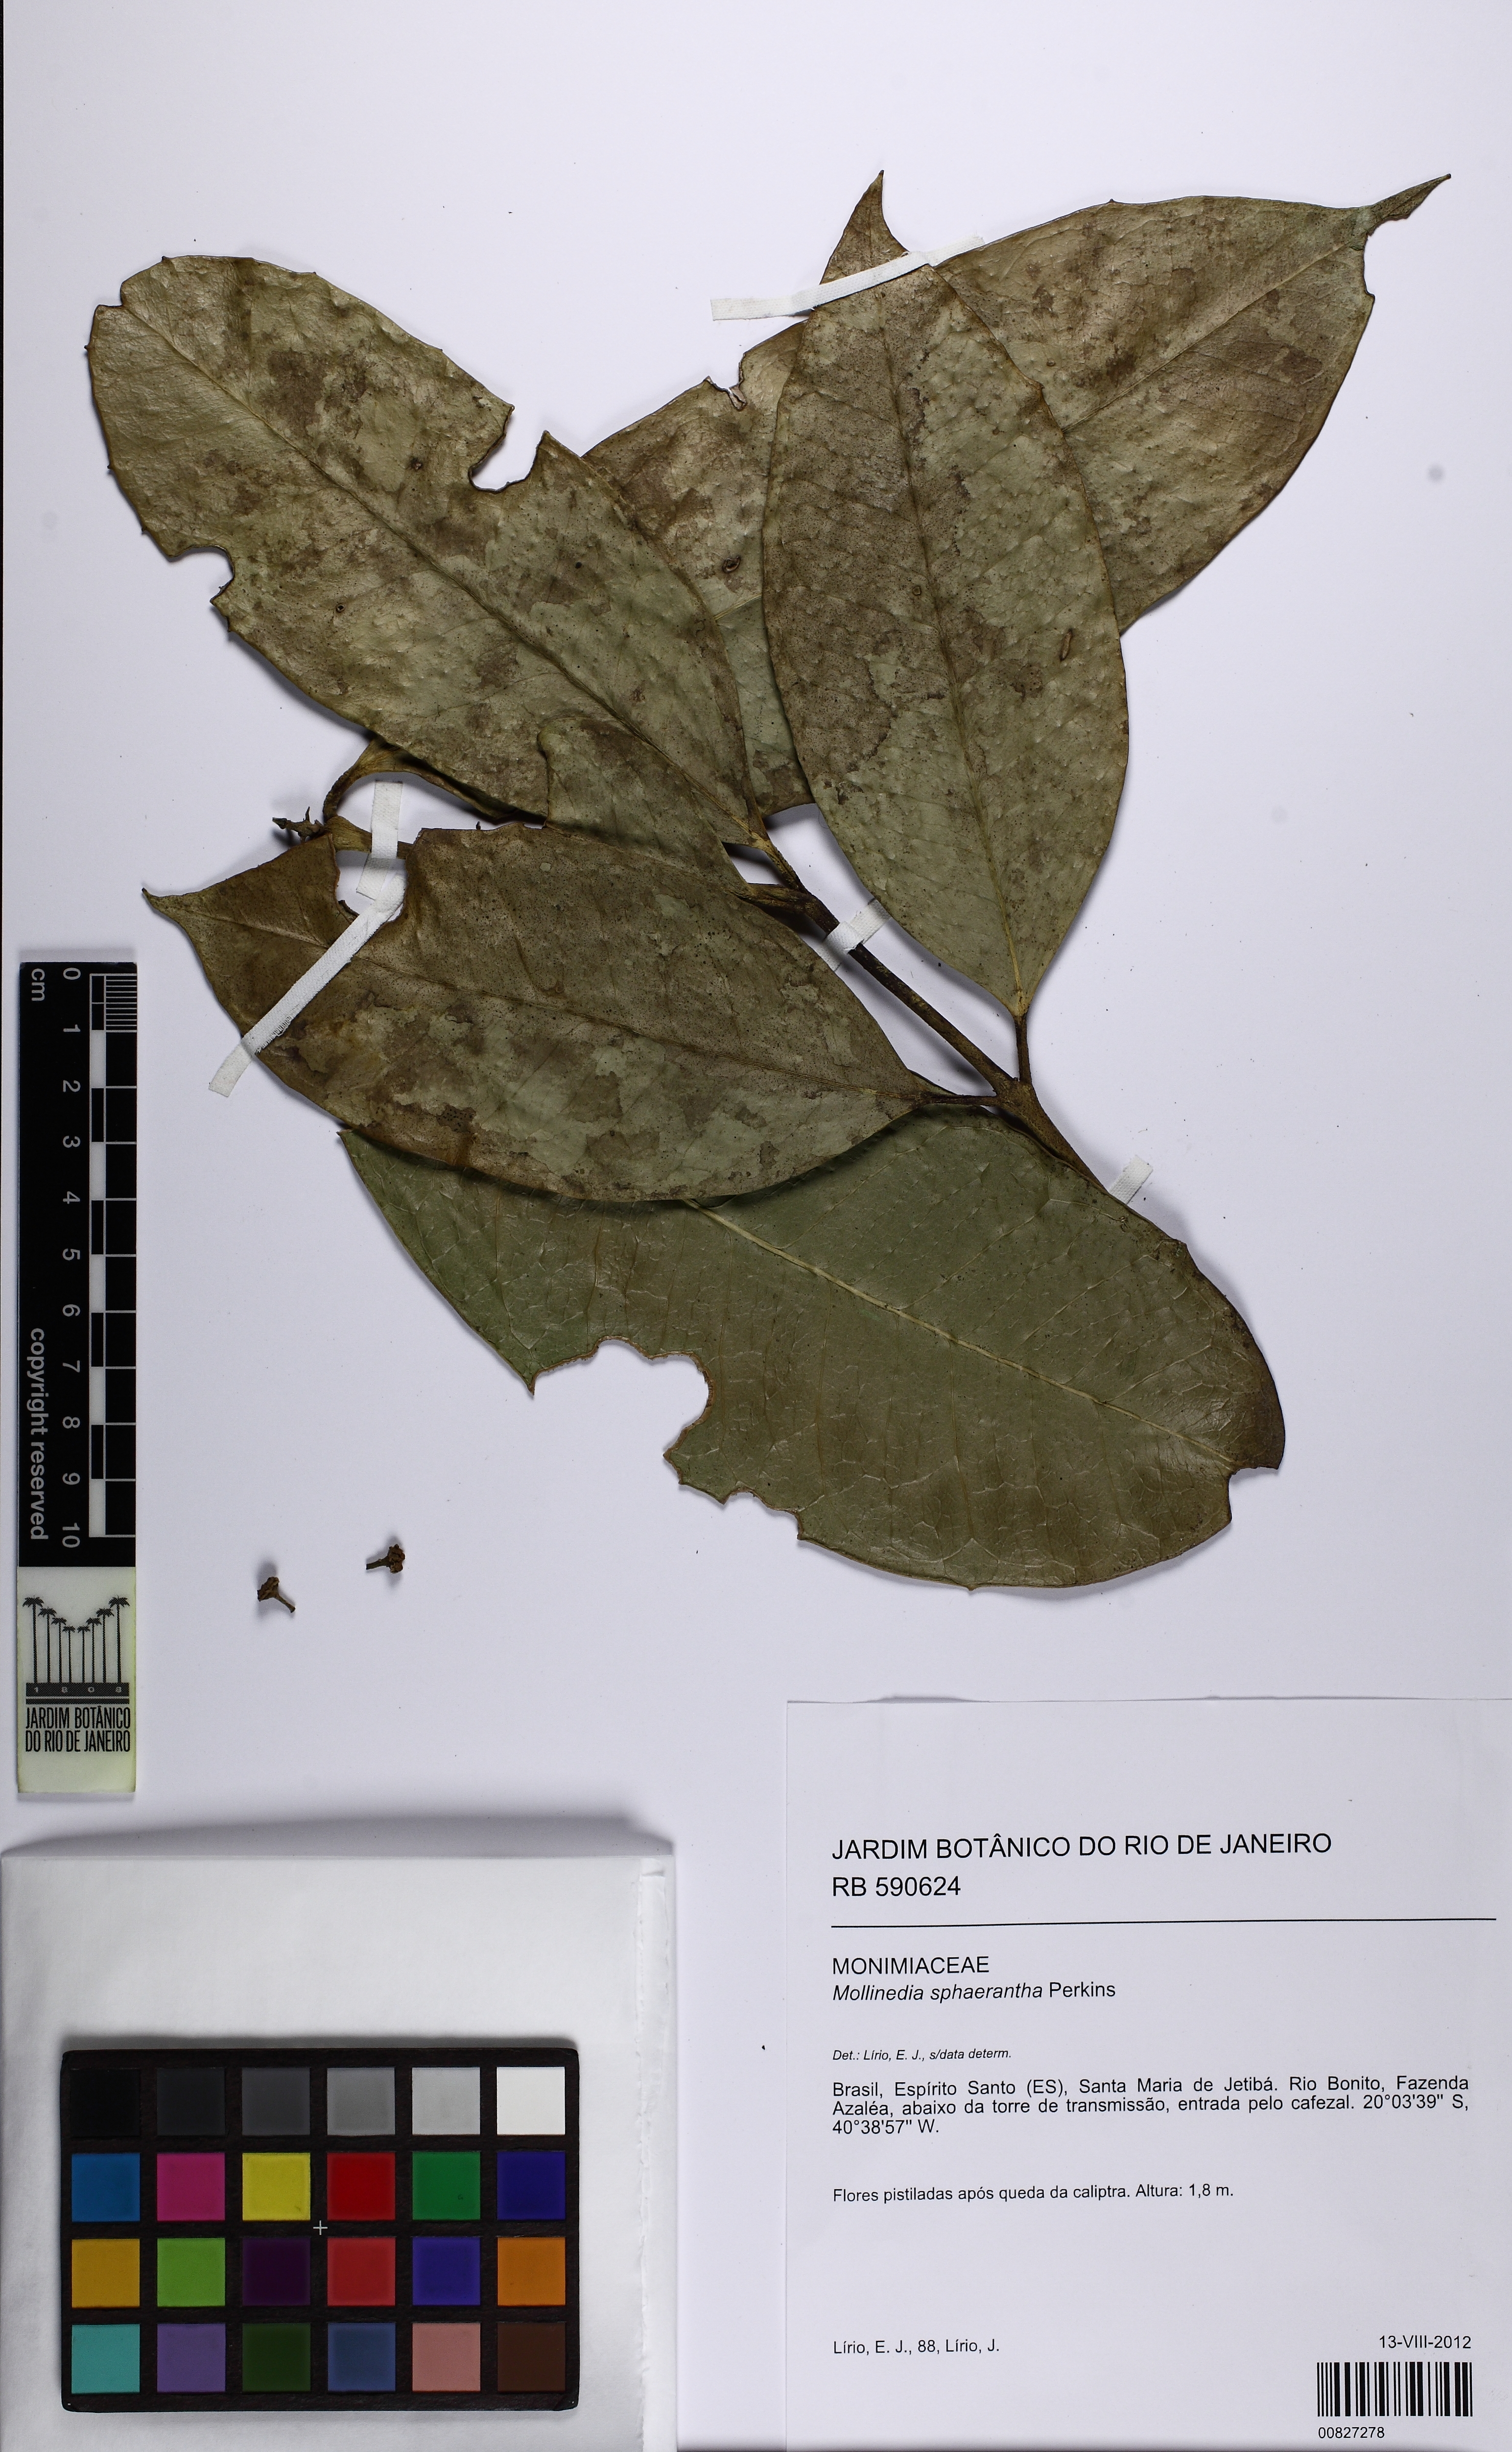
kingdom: Plantae
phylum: Tracheophyta
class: Magnoliopsida
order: Laurales
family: Monimiaceae
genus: Mollinedia
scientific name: Mollinedia glabra
